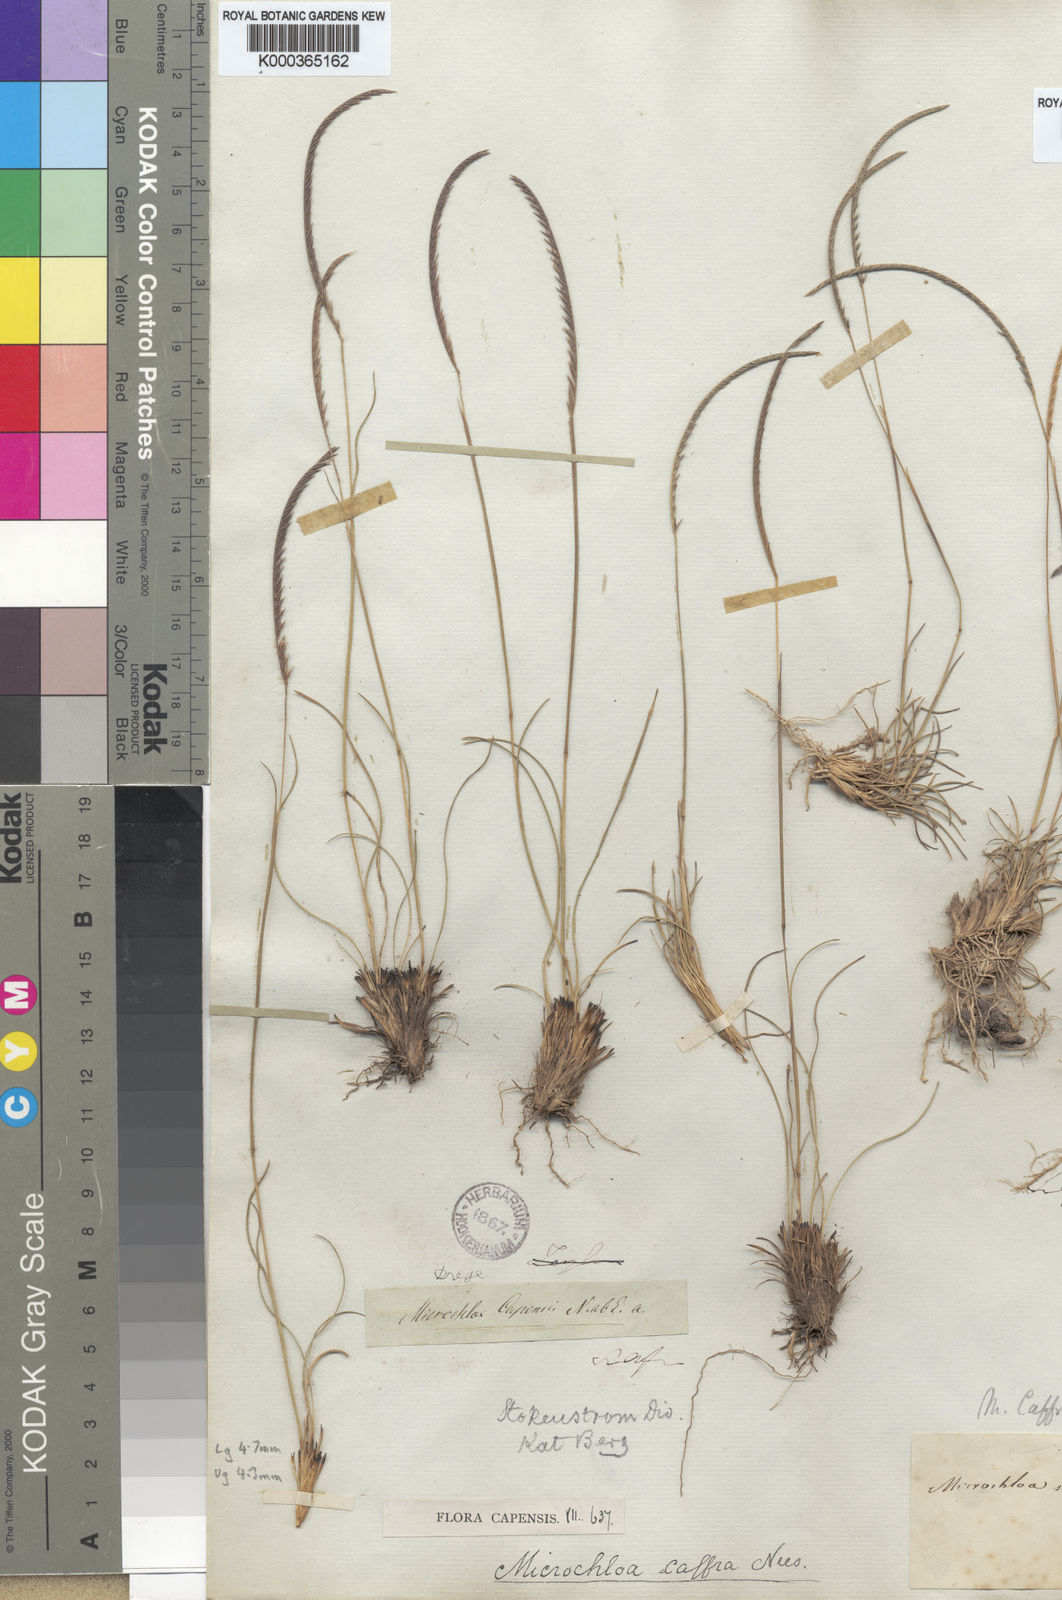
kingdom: Plantae
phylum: Tracheophyta
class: Liliopsida
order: Poales
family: Poaceae
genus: Microchloa
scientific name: Microchloa caffra
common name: Pincushion grass
